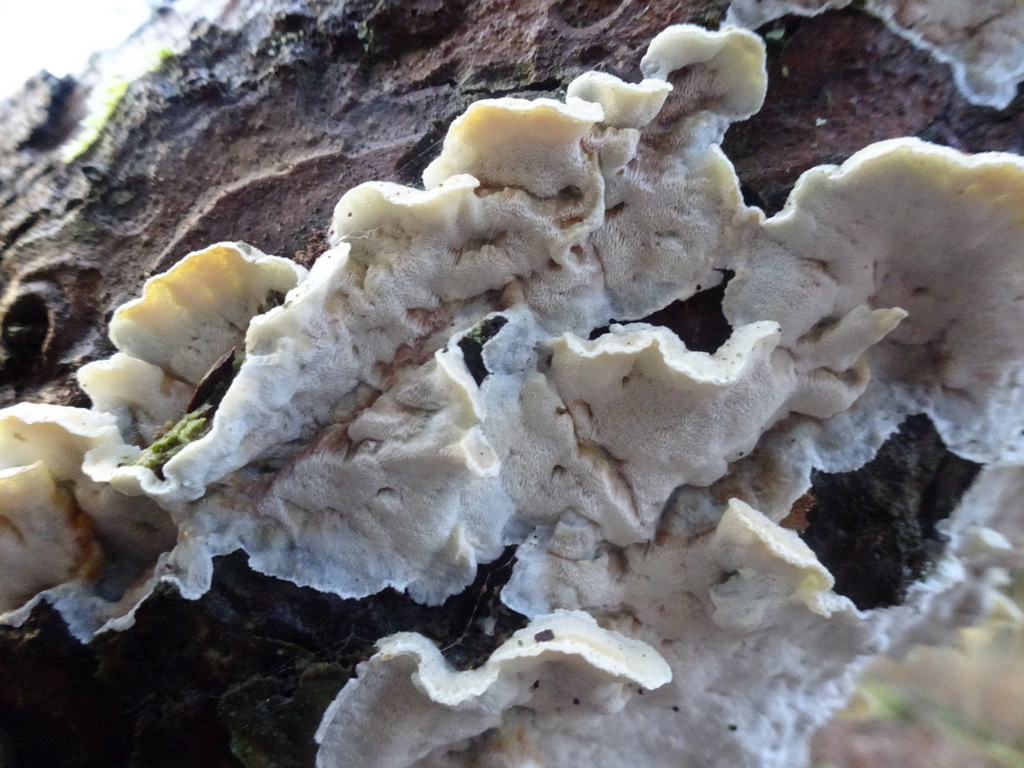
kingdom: Fungi
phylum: Basidiomycota
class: Agaricomycetes
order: Polyporales
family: Incrustoporiaceae
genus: Skeletocutis
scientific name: Skeletocutis amorpha
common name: orange krystalporesvamp
